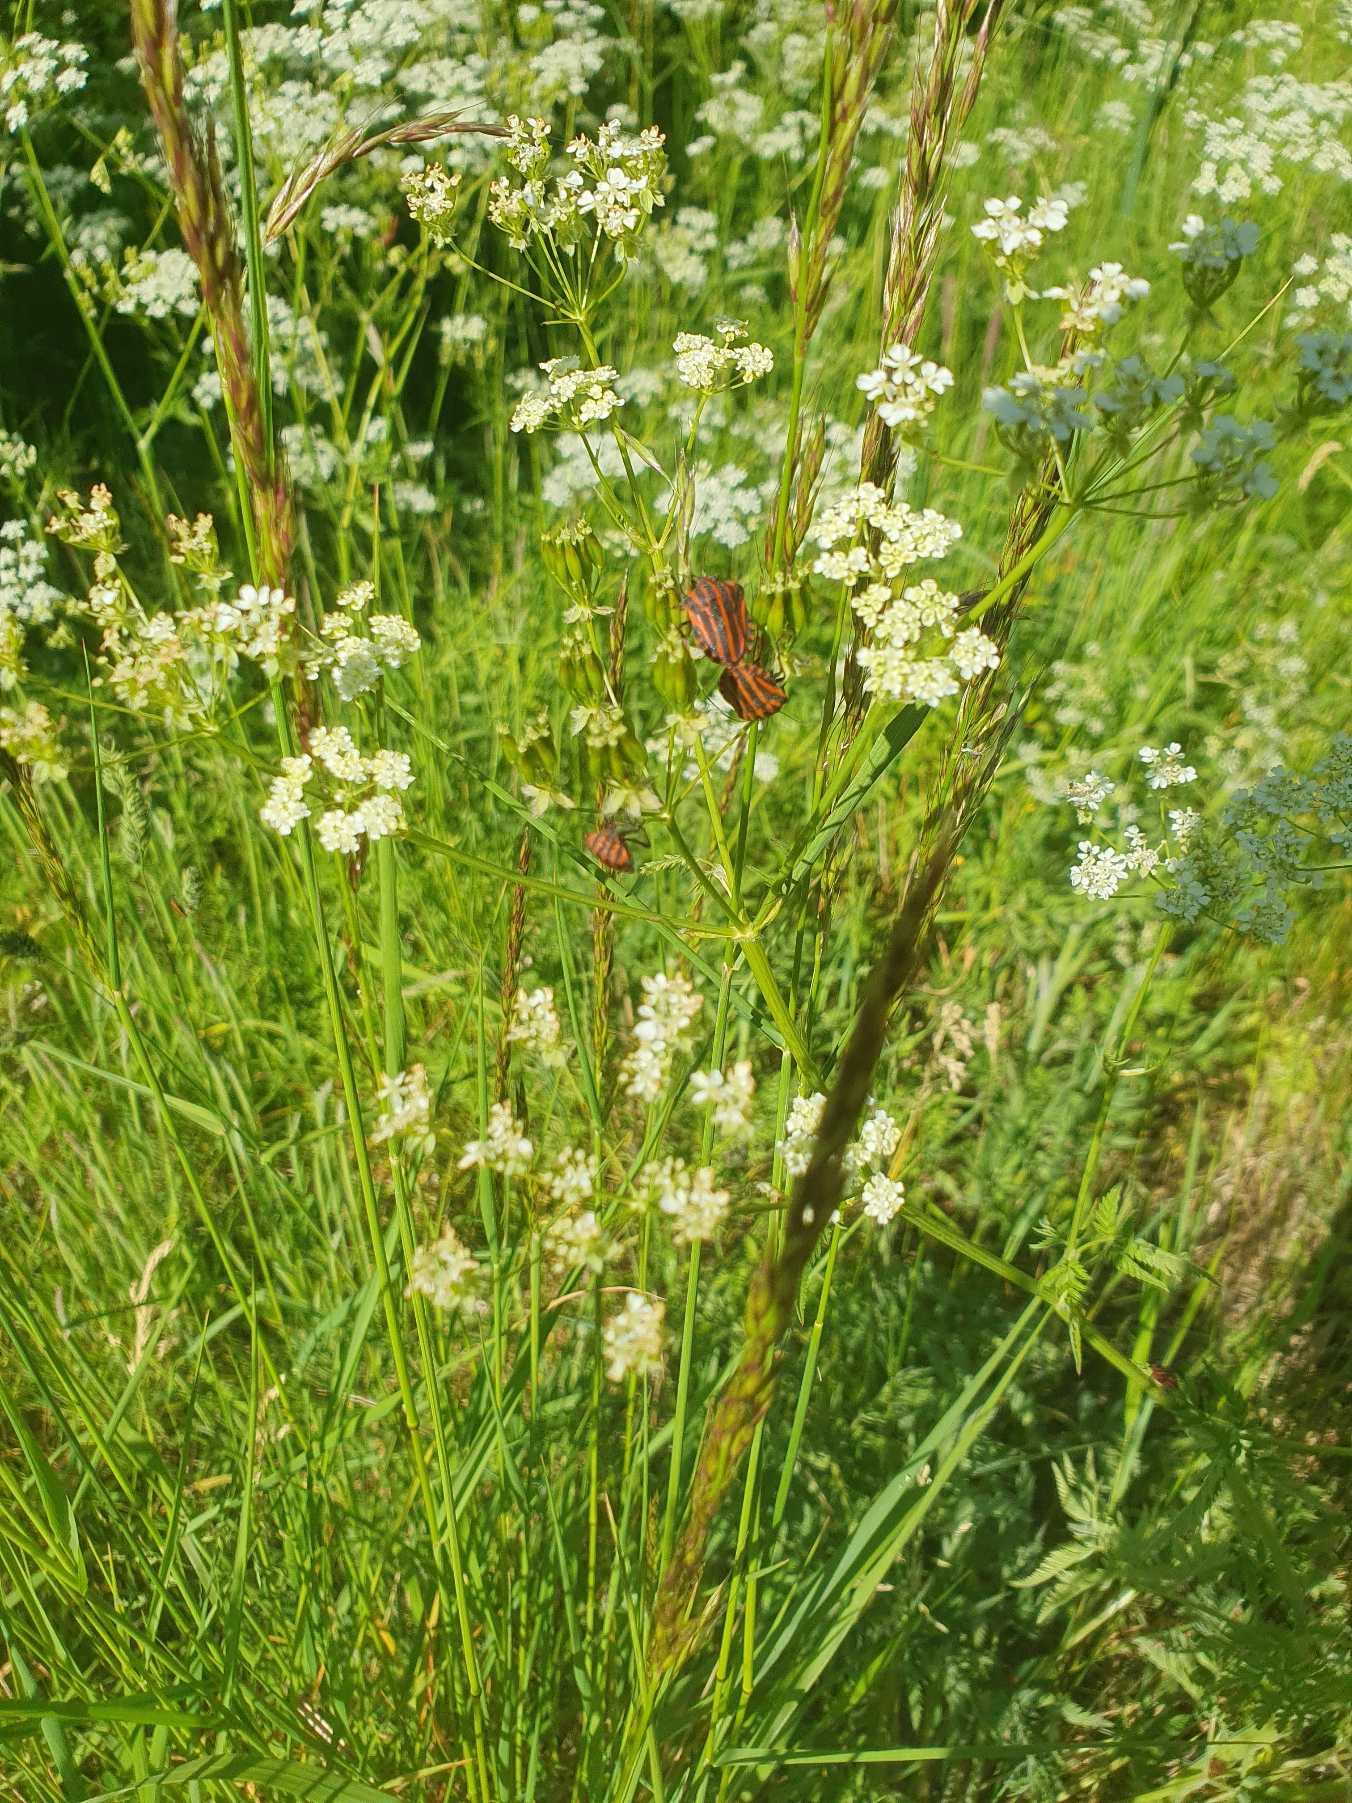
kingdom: Animalia
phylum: Arthropoda
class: Insecta
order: Hemiptera
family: Pentatomidae
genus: Graphosoma
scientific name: Graphosoma italicum
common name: Stribetæge
